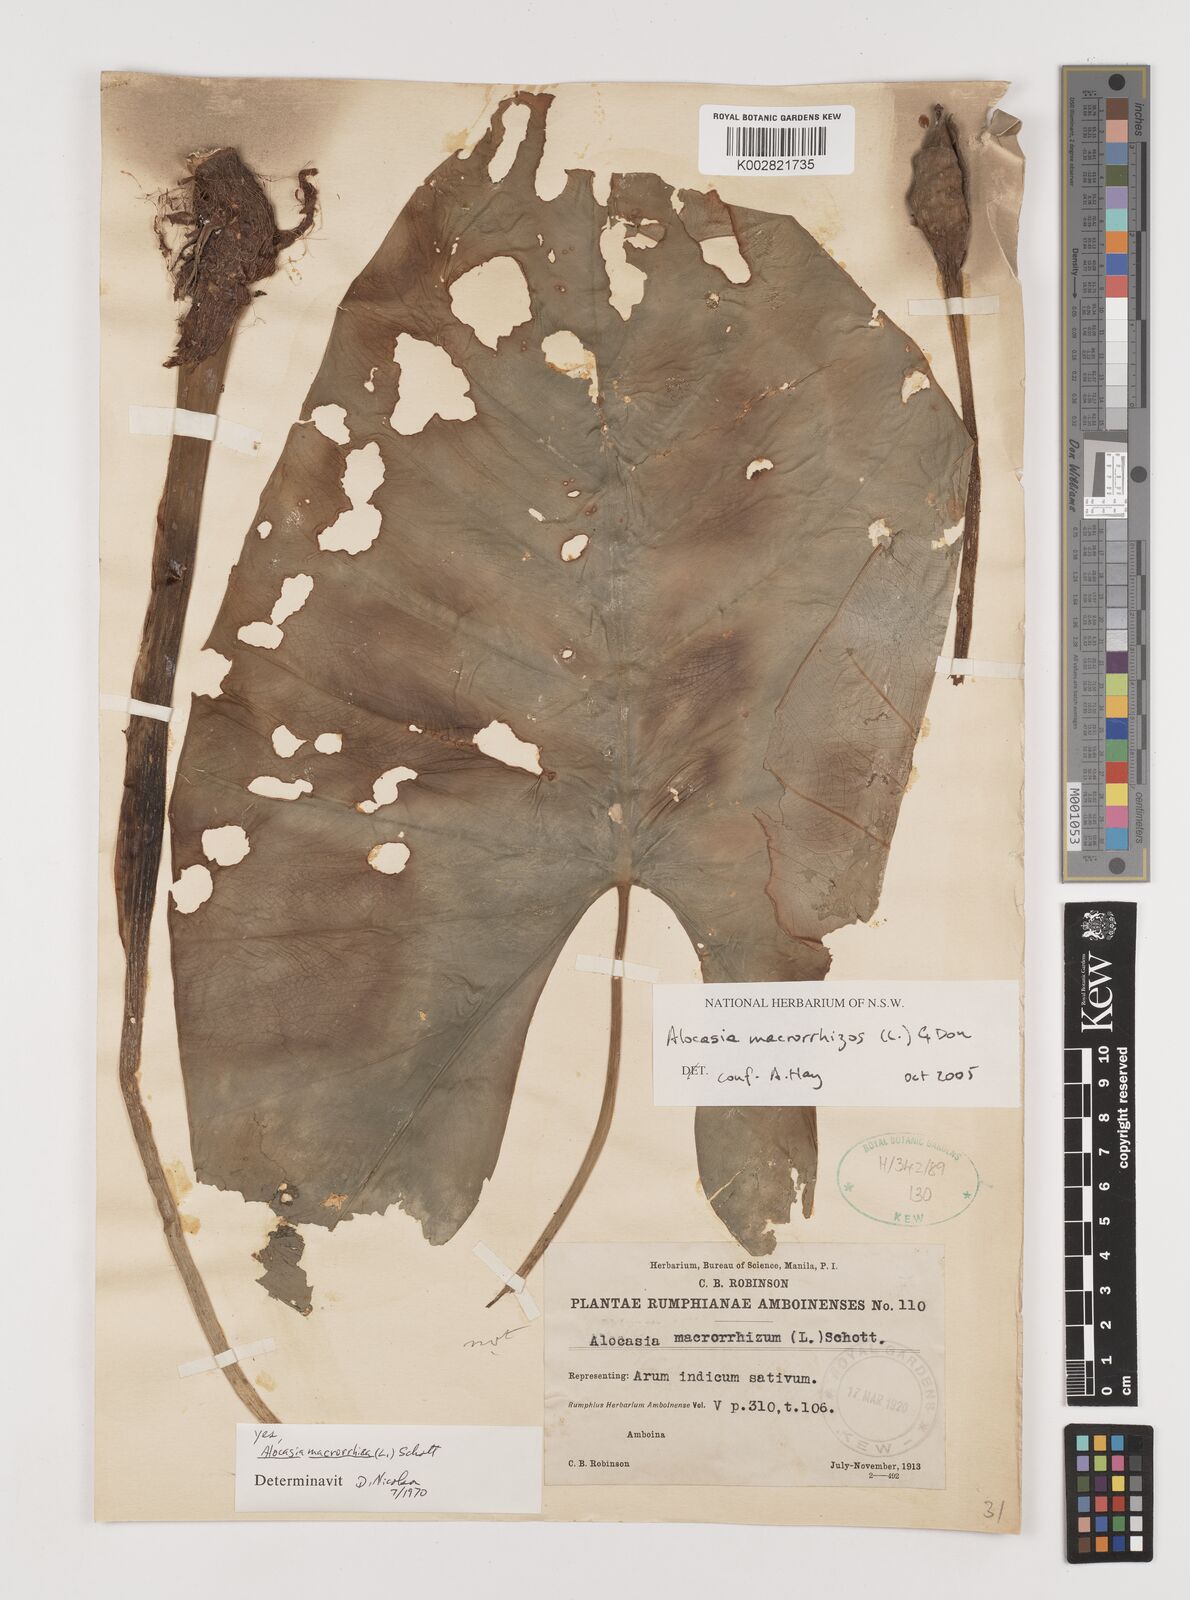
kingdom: Plantae
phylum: Tracheophyta
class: Liliopsida
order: Alismatales
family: Araceae
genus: Alocasia
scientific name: Alocasia macrorrhizos
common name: Giant taro
